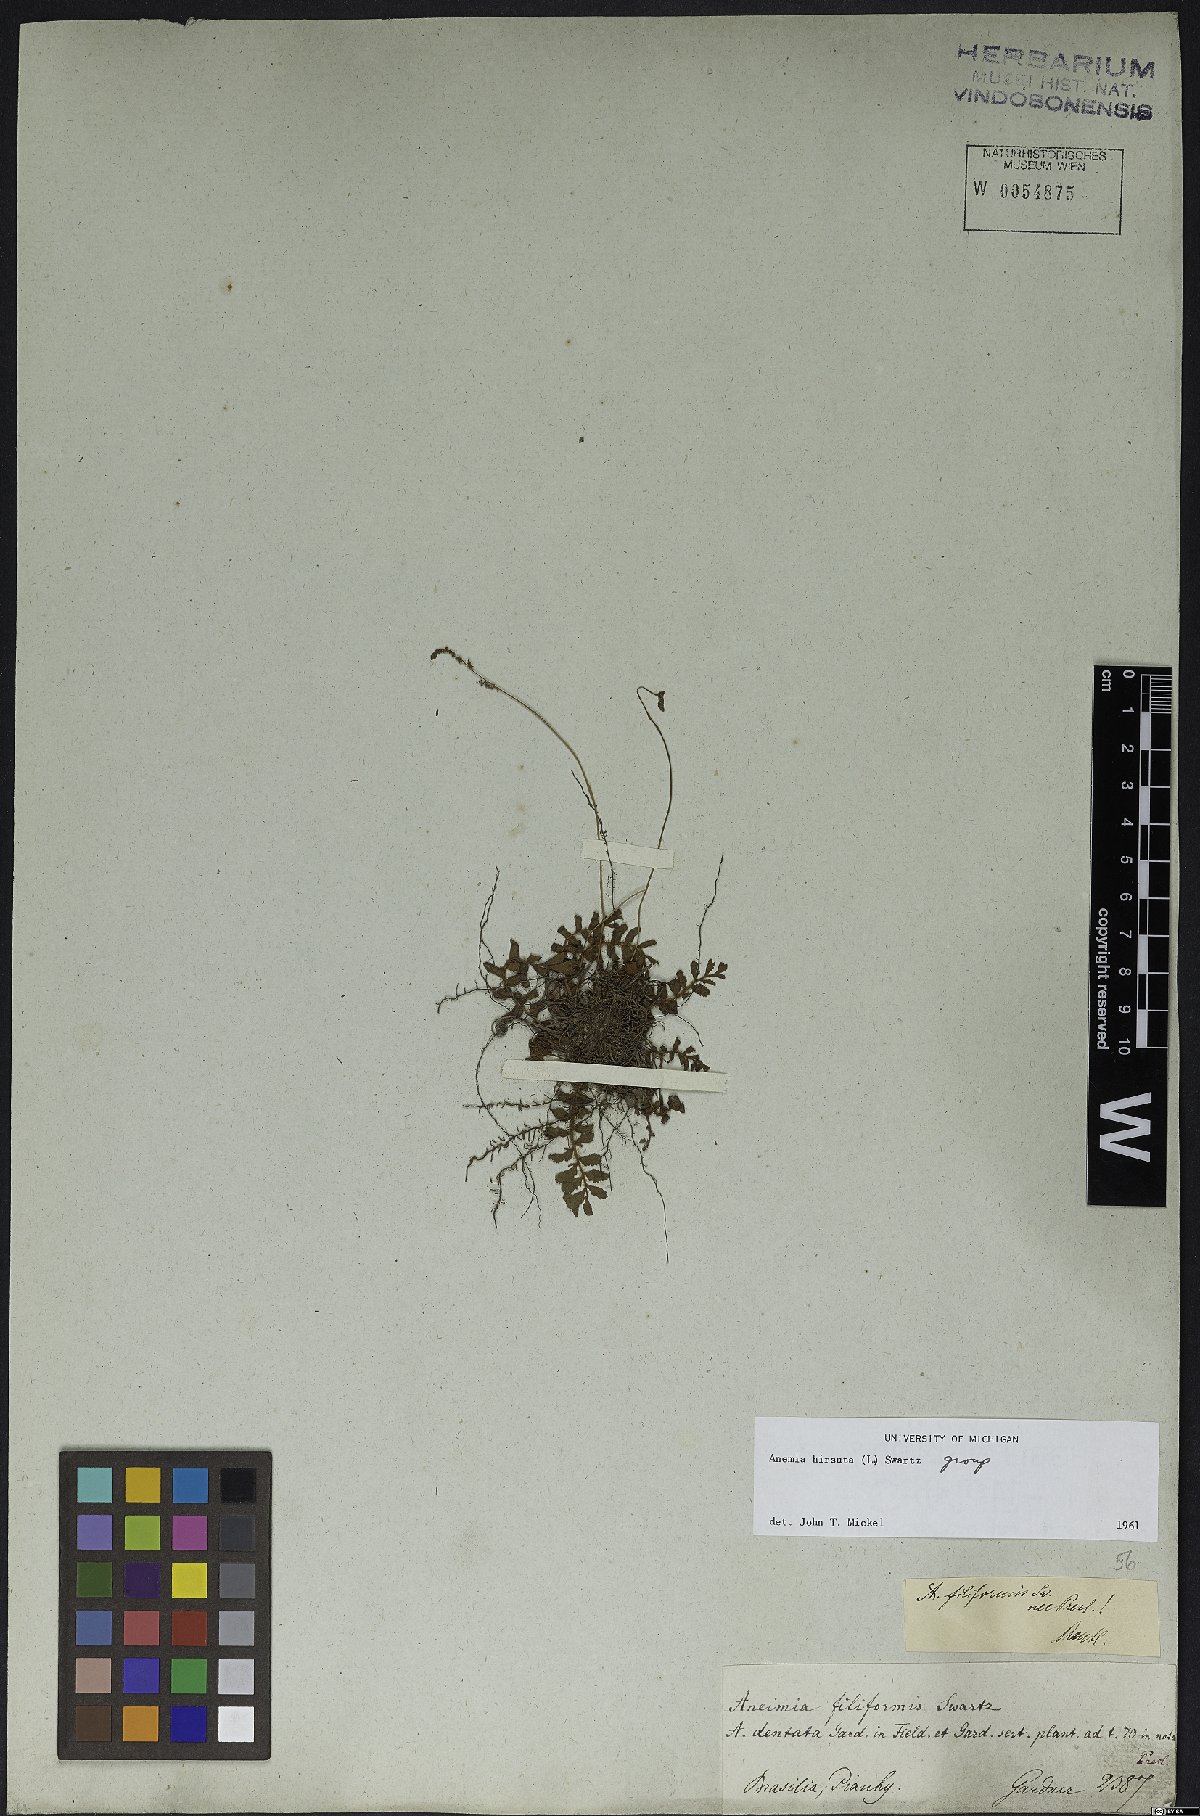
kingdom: Plantae
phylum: Tracheophyta
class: Polypodiopsida
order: Schizaeales
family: Anemiaceae
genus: Anemia
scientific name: Anemia hirsuta
